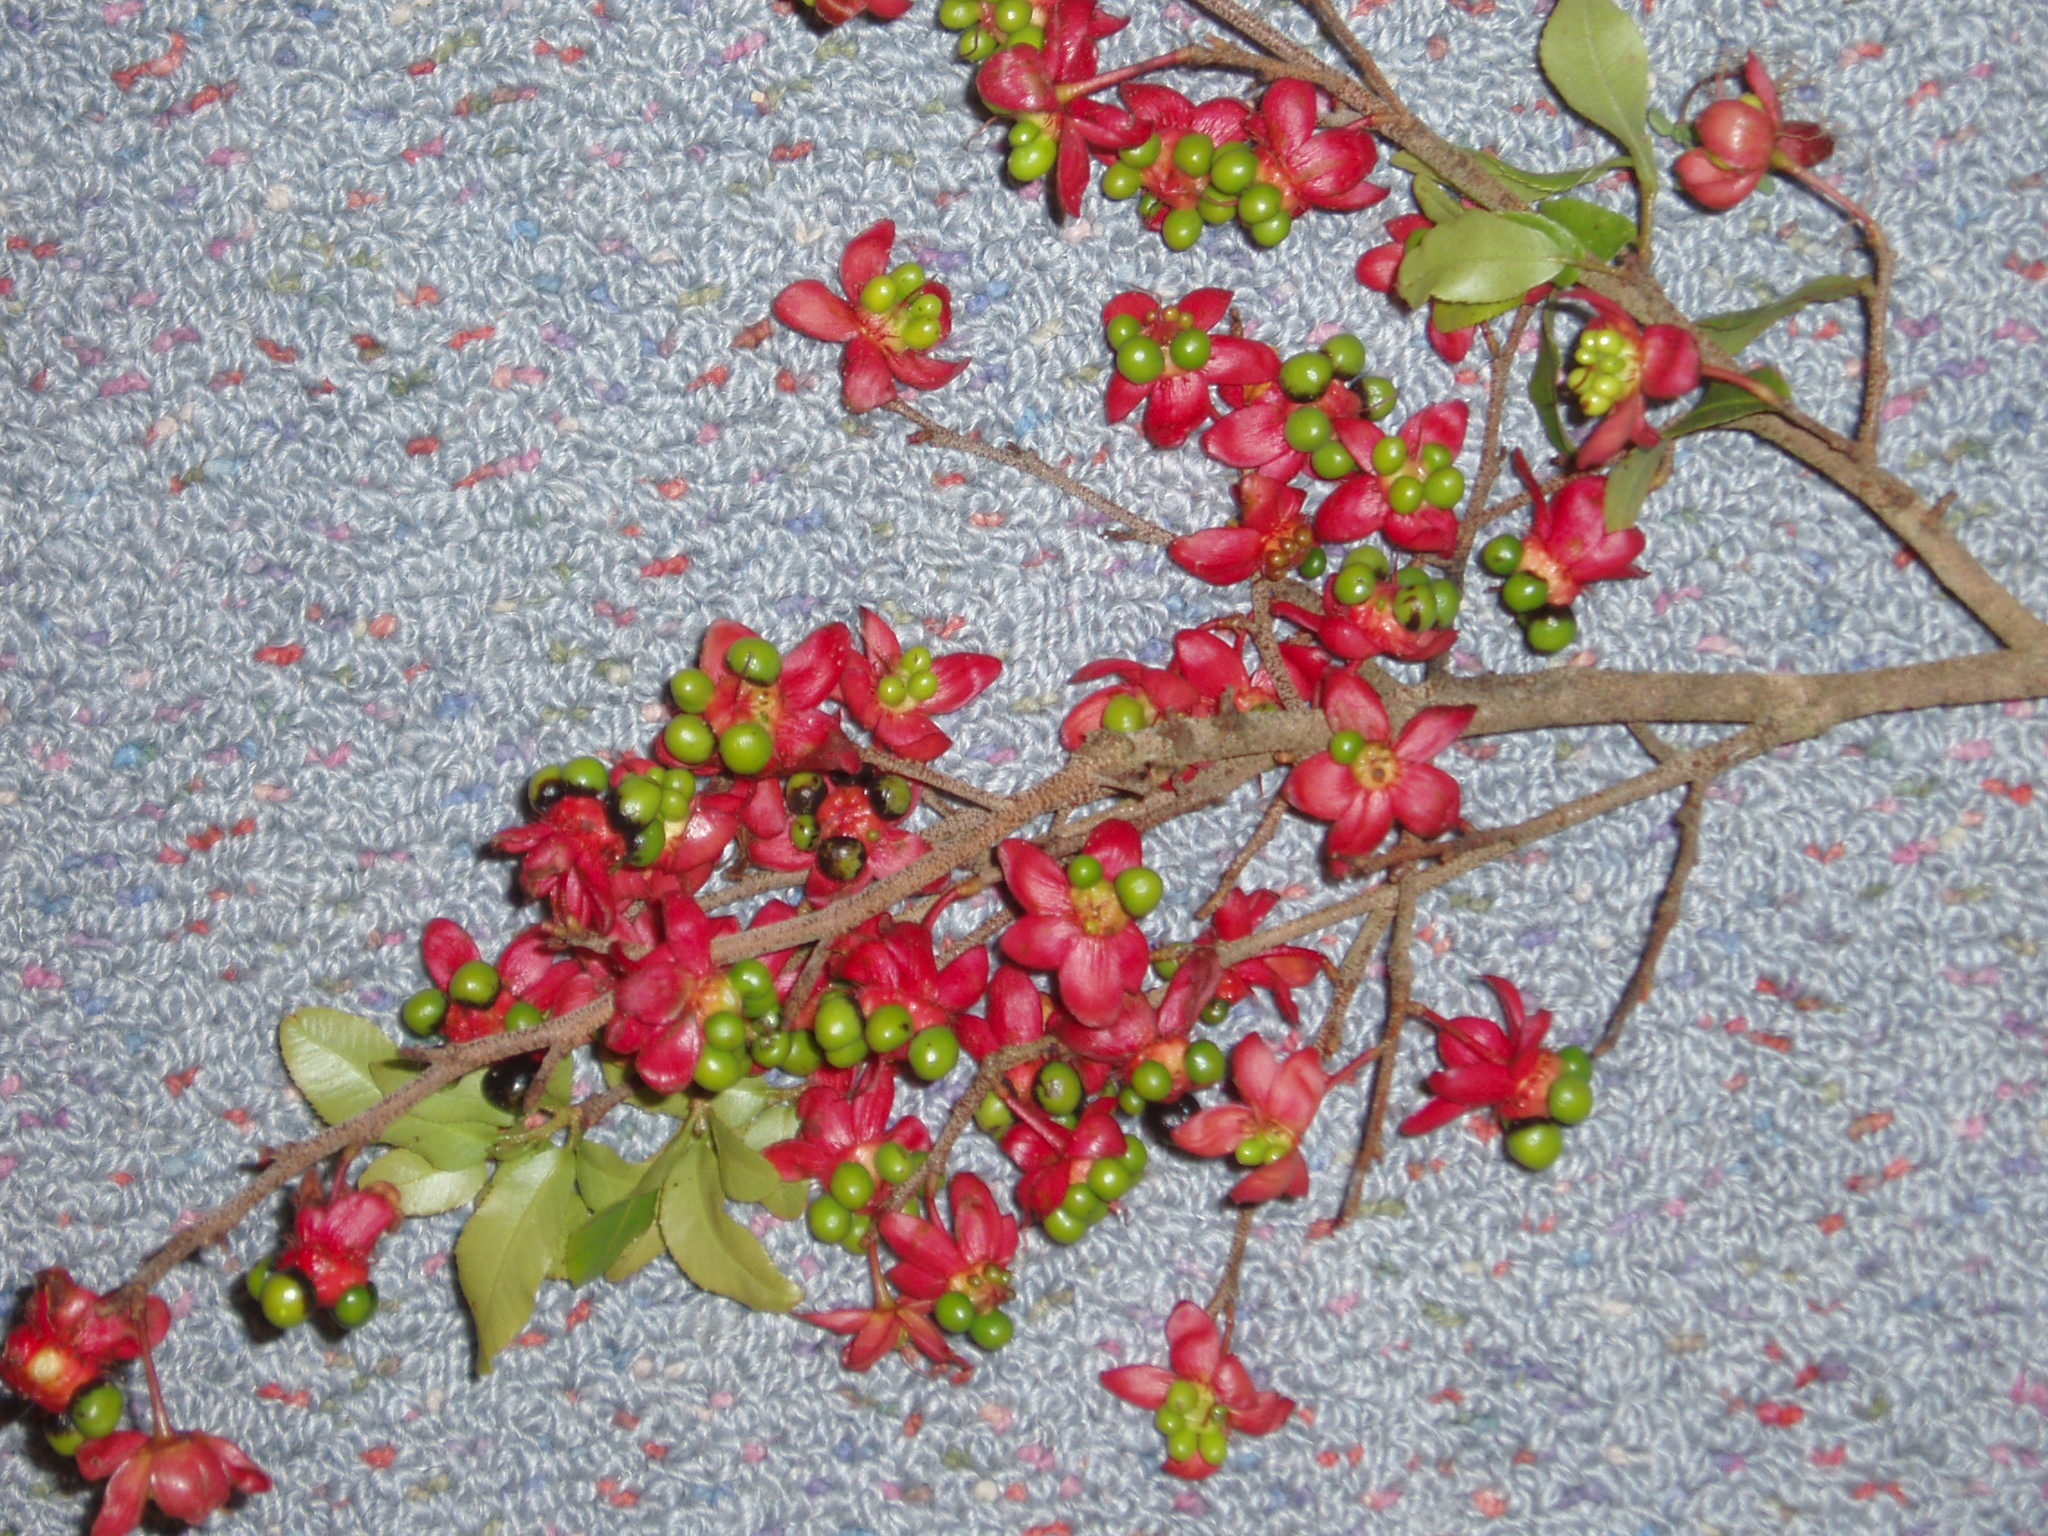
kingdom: Plantae
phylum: Tracheophyta
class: Magnoliopsida
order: Malpighiales
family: Ochnaceae
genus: Ochna
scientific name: Ochna serrulata
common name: Mickey mouse plant
